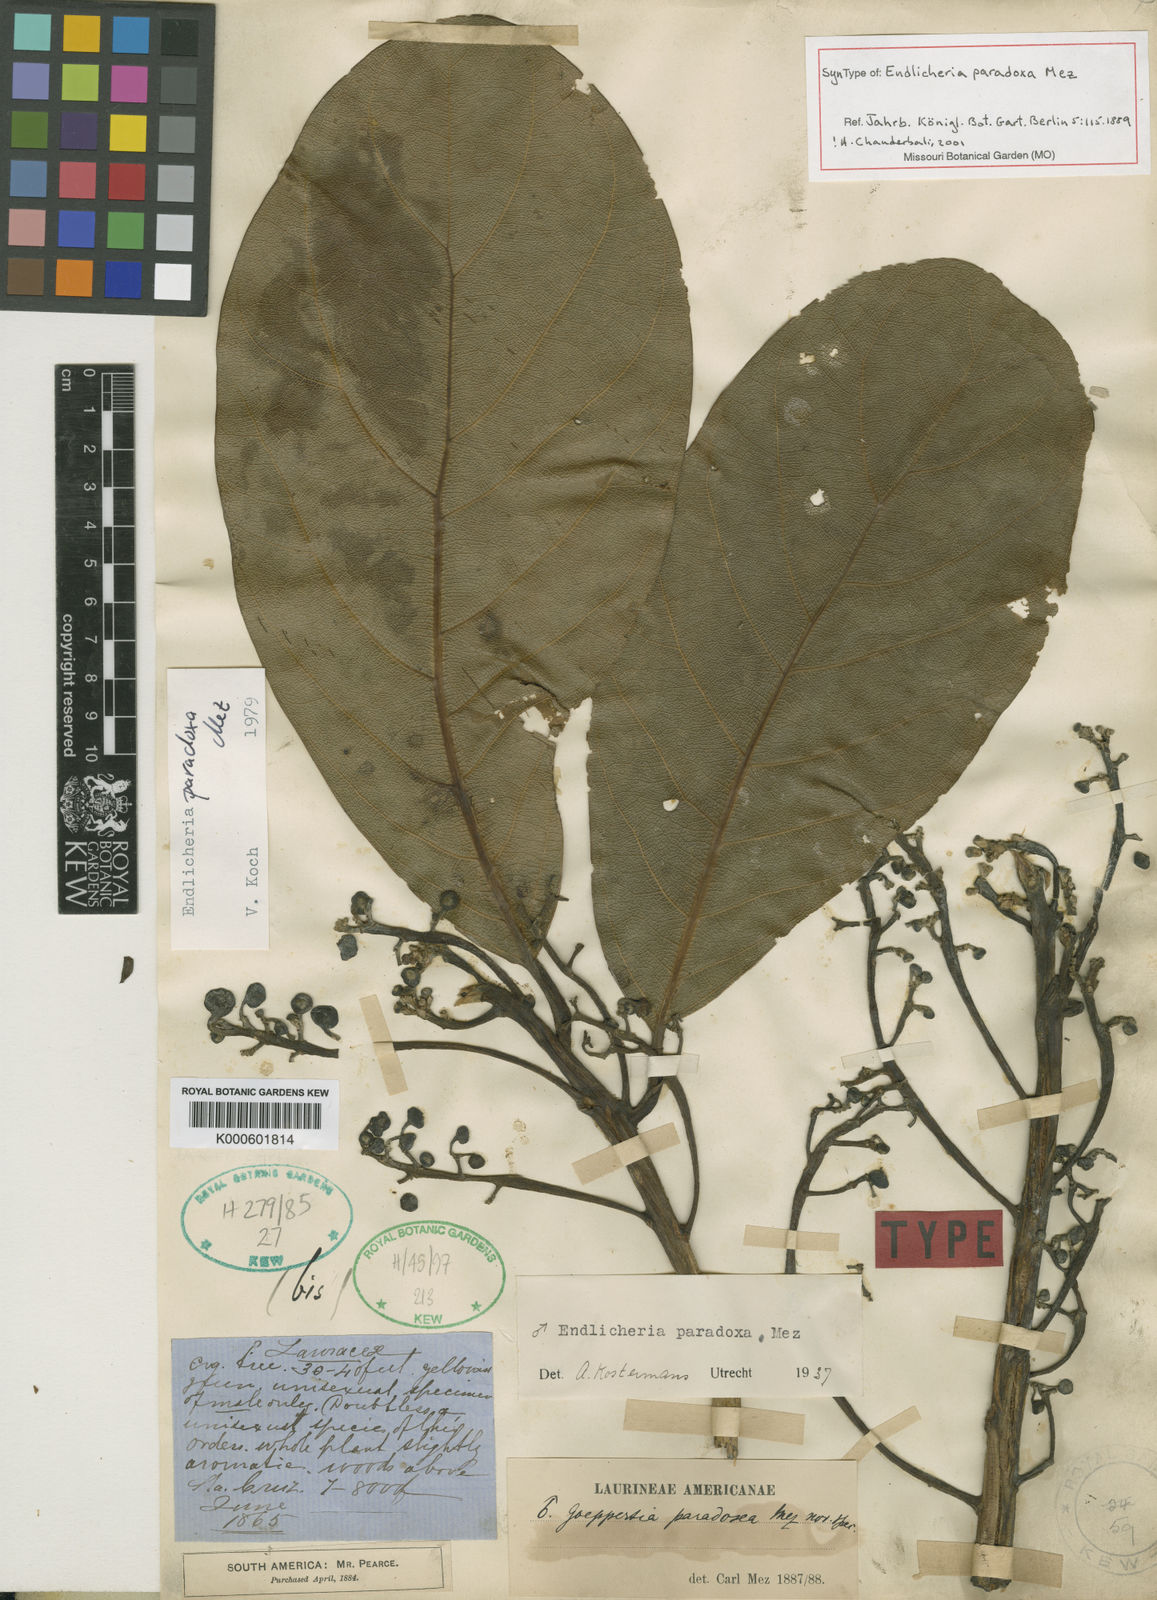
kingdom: Plantae
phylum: Tracheophyta
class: Magnoliopsida
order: Laurales
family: Lauraceae
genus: Endlicheria
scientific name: Endlicheria paradoxa
